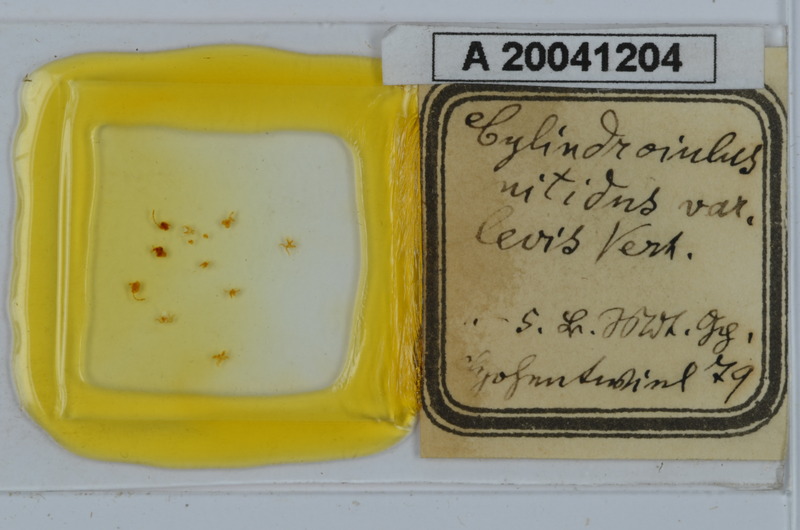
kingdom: Animalia
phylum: Arthropoda
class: Diplopoda
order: Julida
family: Julidae
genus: Allajulus
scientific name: Allajulus nitidus
